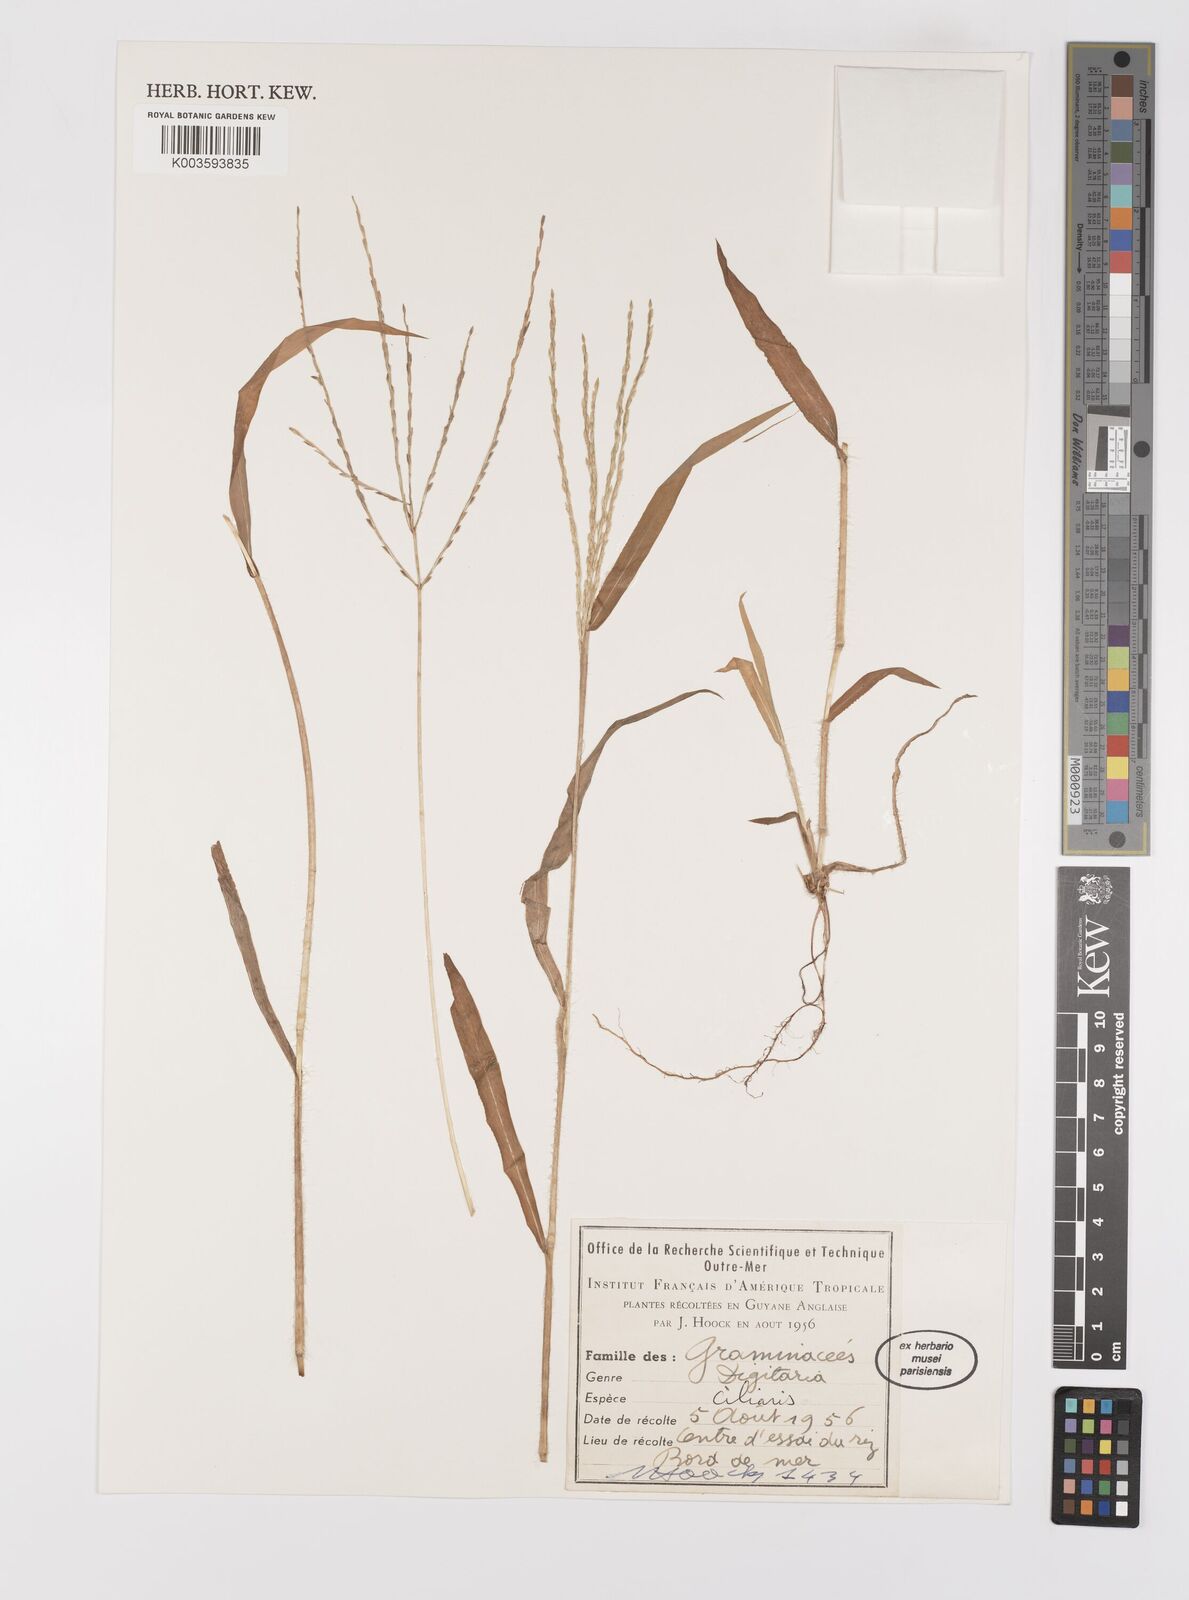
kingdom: Plantae
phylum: Tracheophyta
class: Liliopsida
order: Poales
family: Poaceae
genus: Digitaria
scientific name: Digitaria ciliaris
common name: Tropical finger-grass
